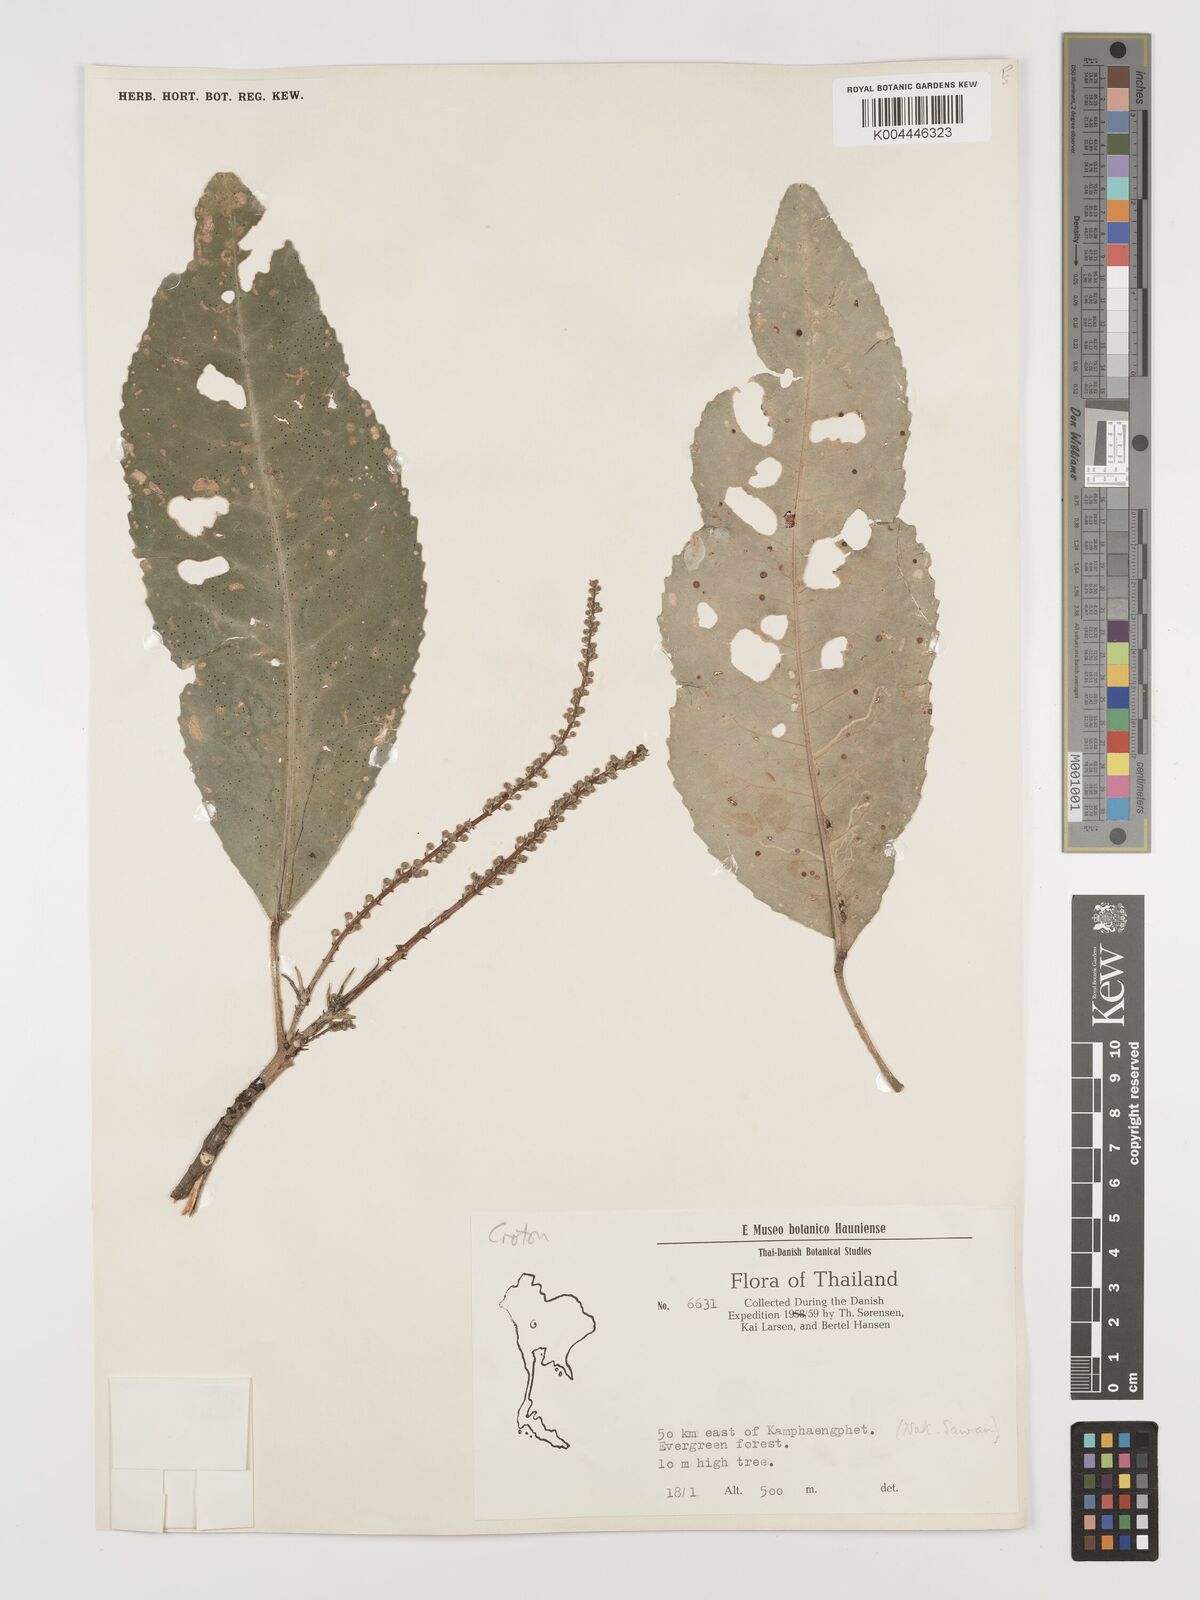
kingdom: Plantae
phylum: Tracheophyta
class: Magnoliopsida
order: Malpighiales
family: Euphorbiaceae
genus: Baliospermum
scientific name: Baliospermum solanifolium
